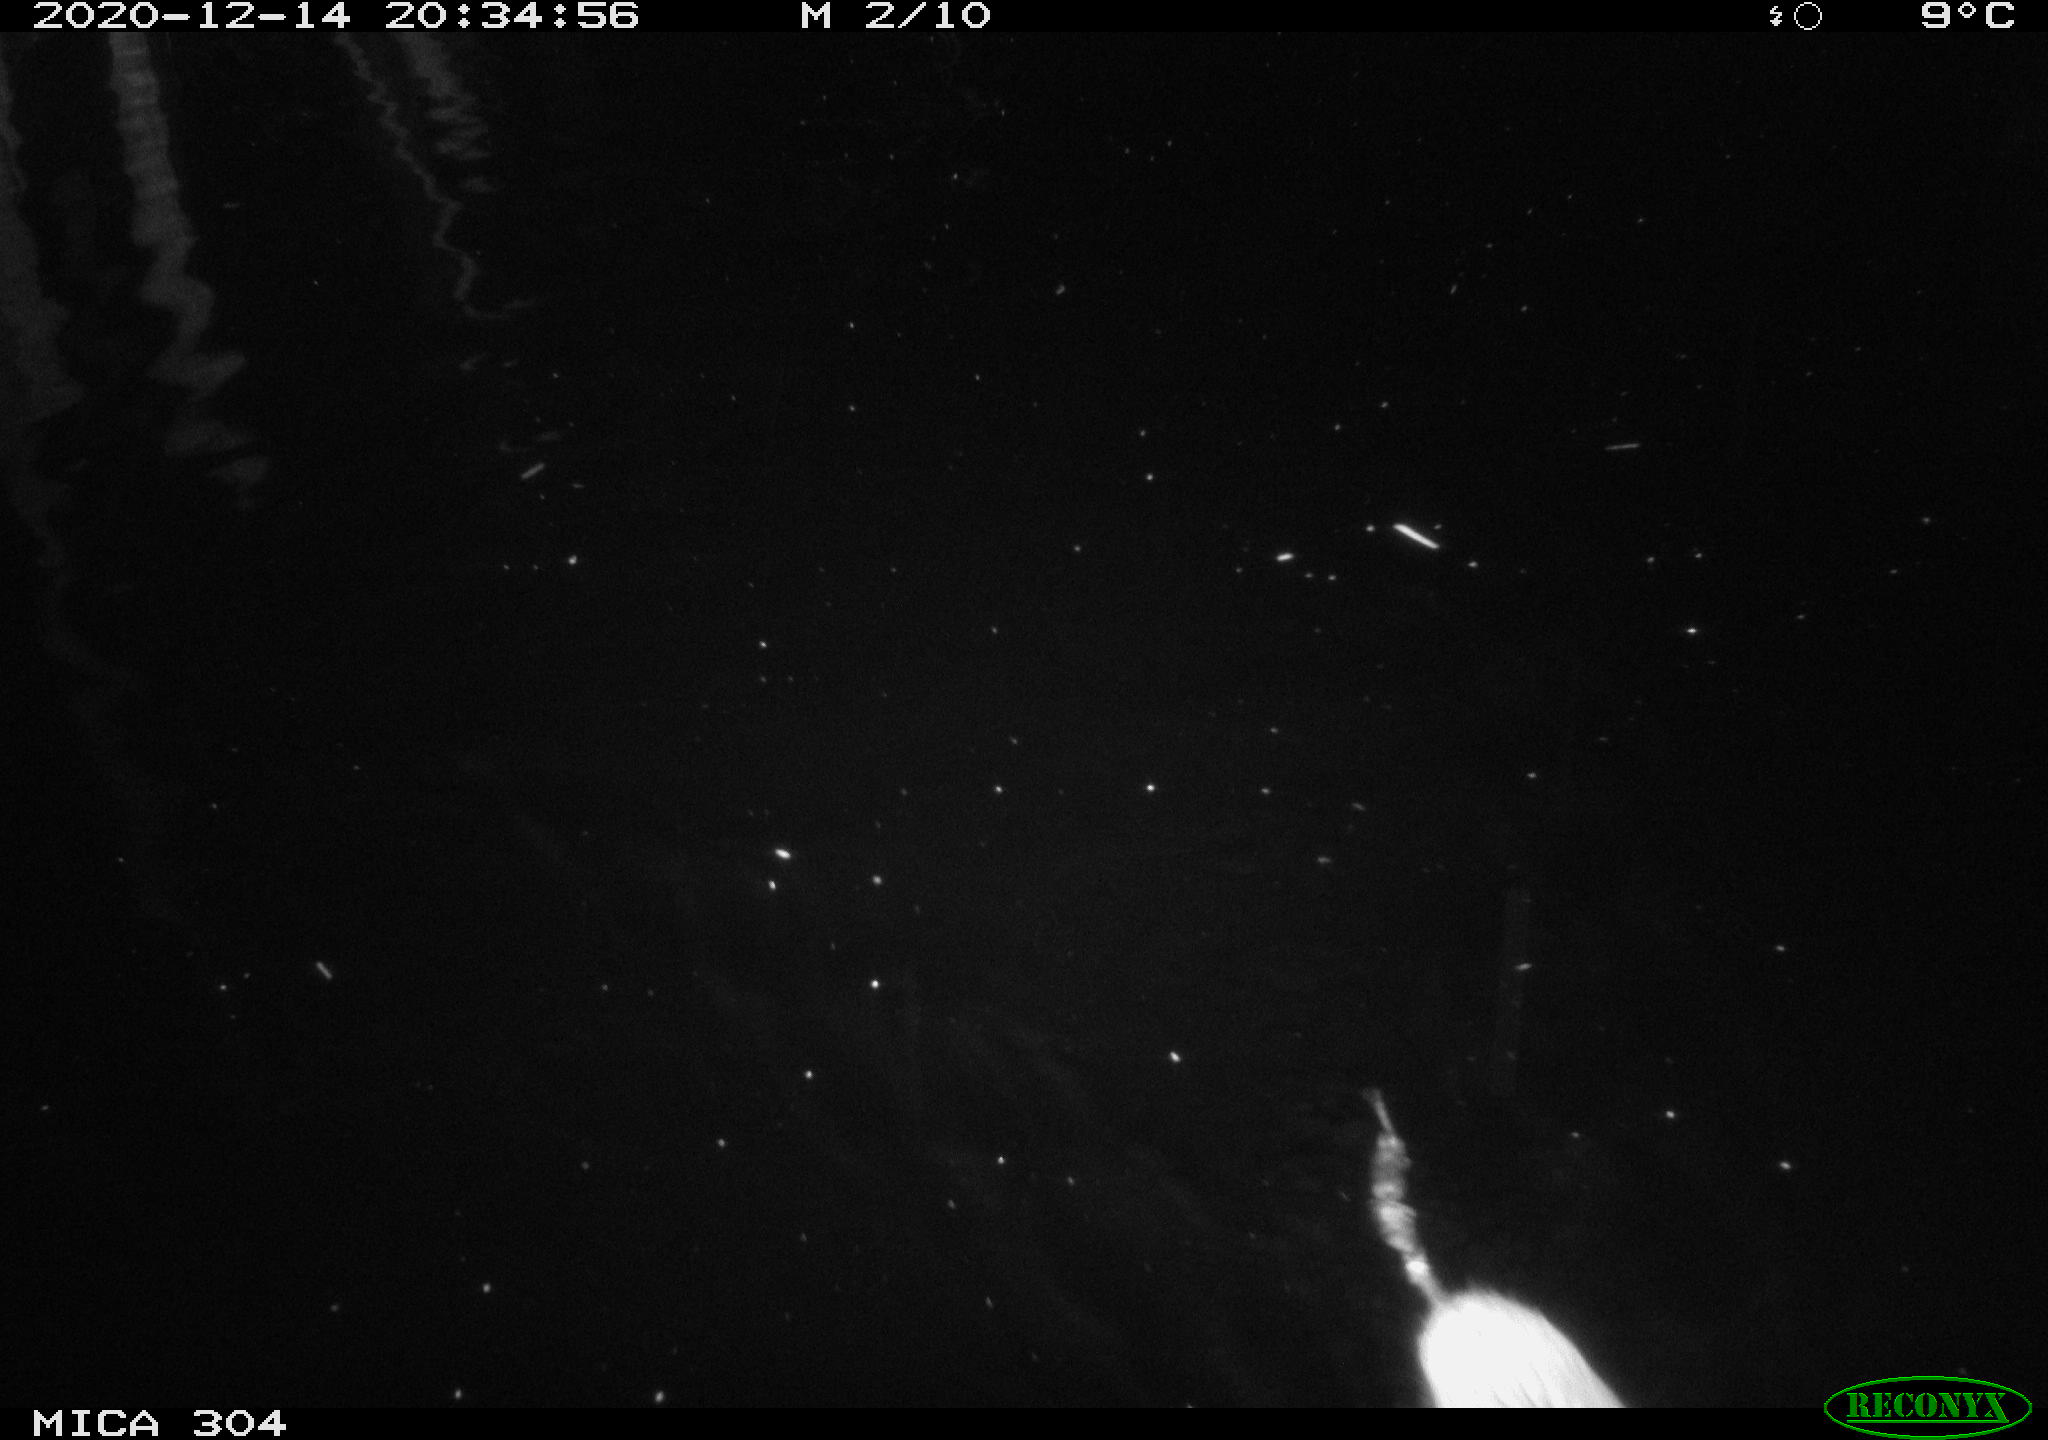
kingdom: Animalia
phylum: Chordata
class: Mammalia
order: Rodentia
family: Cricetidae
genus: Ondatra
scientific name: Ondatra zibethicus
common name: Muskrat
